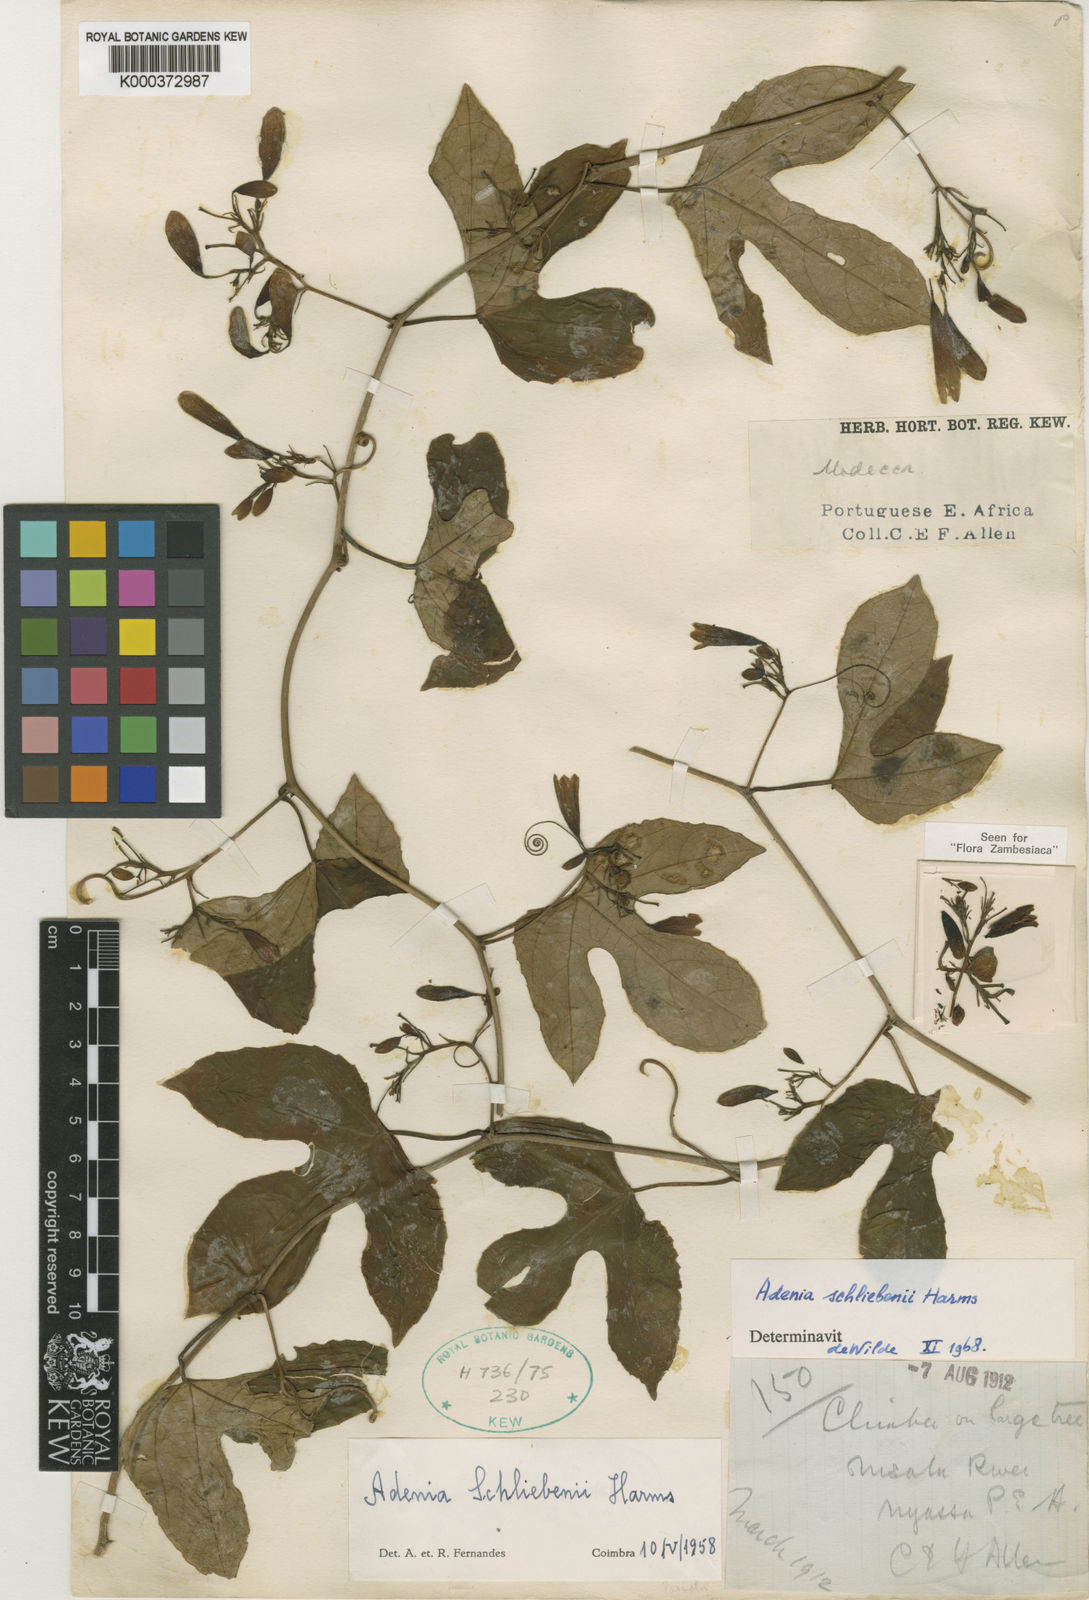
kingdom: Plantae
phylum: Tracheophyta
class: Magnoliopsida
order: Malpighiales
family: Passifloraceae
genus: Adenia
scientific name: Adenia schliebenii
